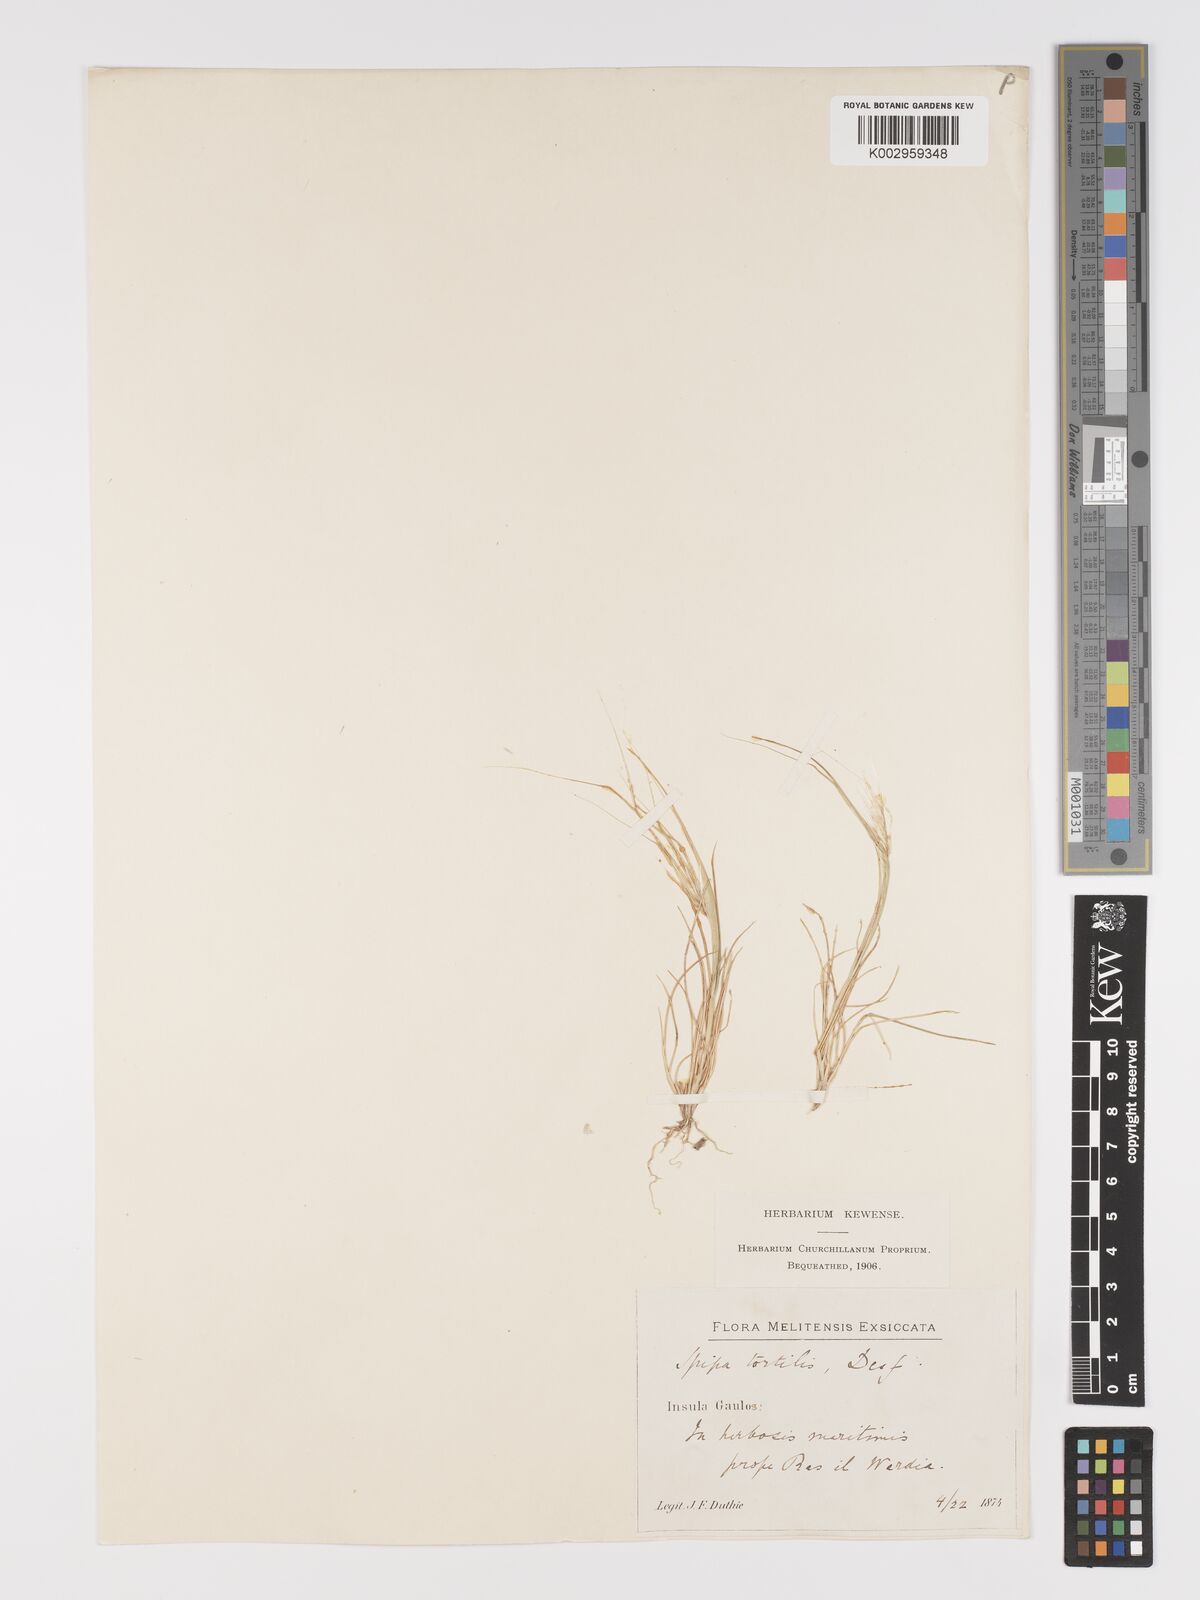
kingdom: Plantae
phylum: Tracheophyta
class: Liliopsida
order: Poales
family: Poaceae
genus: Stipellula
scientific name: Stipellula capensis
